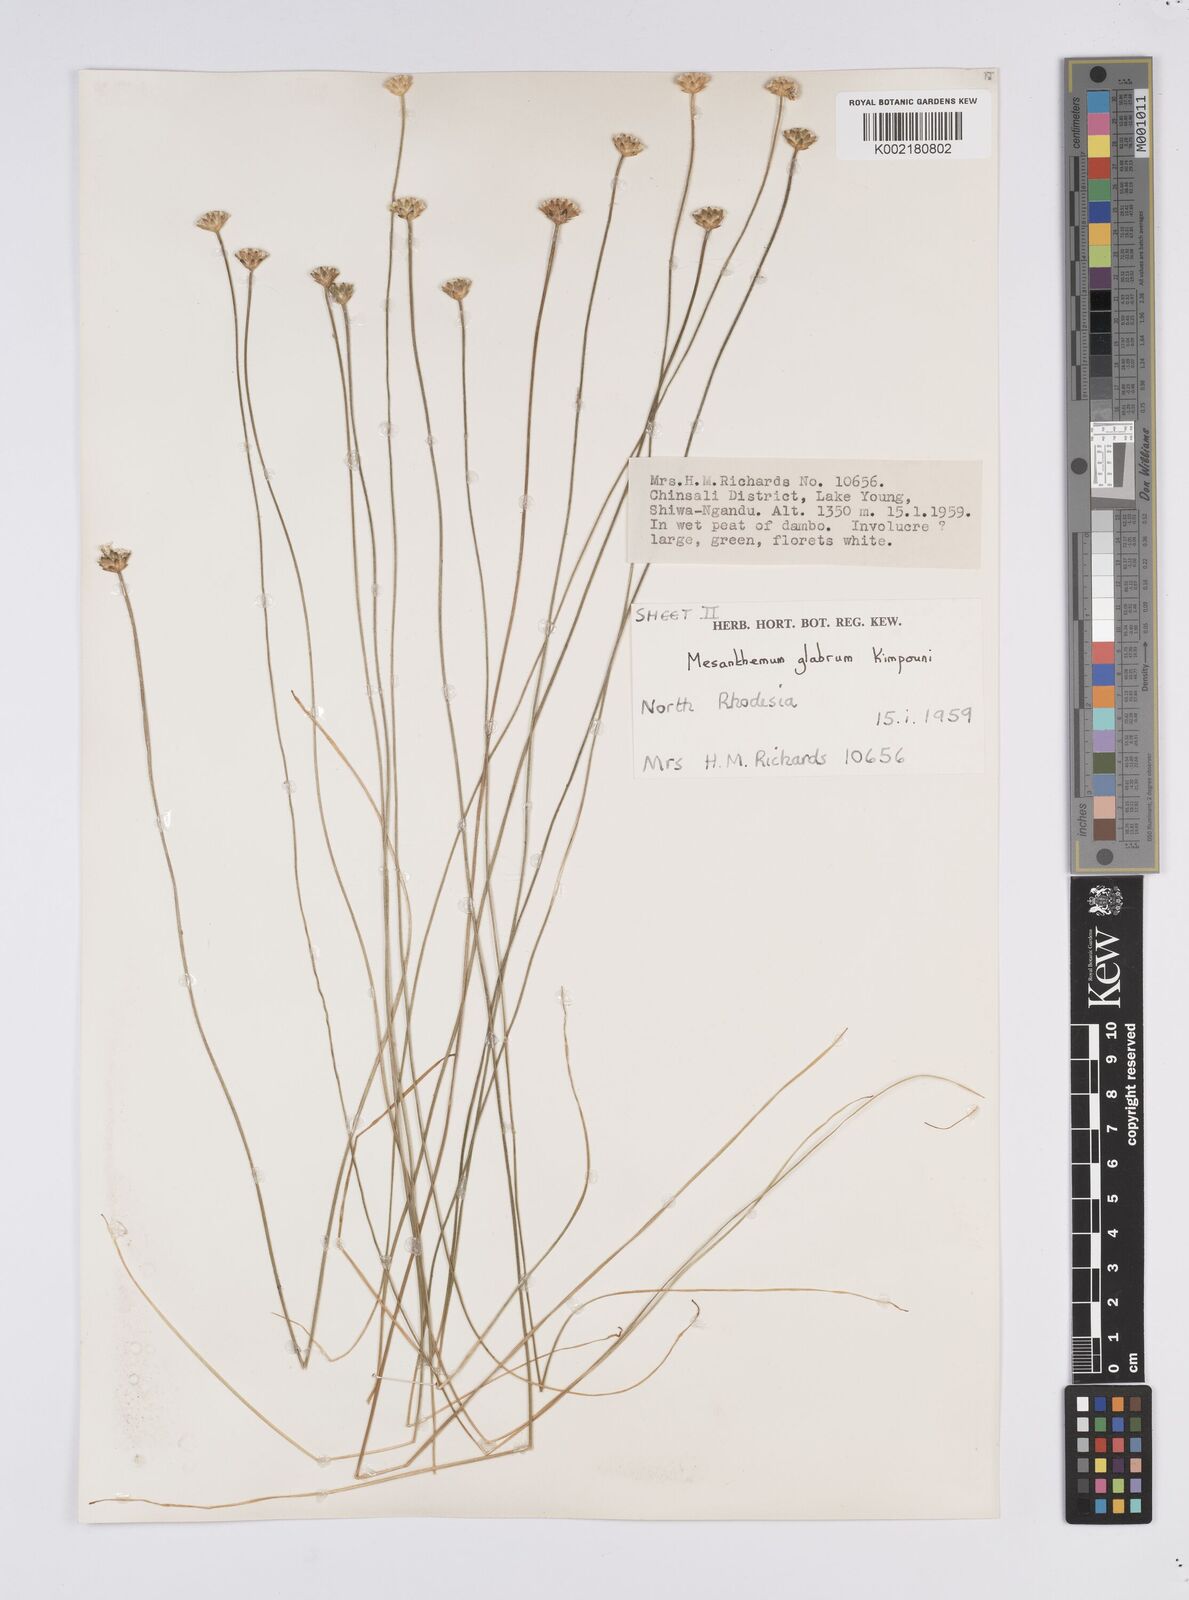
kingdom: Plantae
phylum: Tracheophyta
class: Liliopsida
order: Poales
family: Eriocaulaceae
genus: Mesanthemum
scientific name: Mesanthemum glabrum
